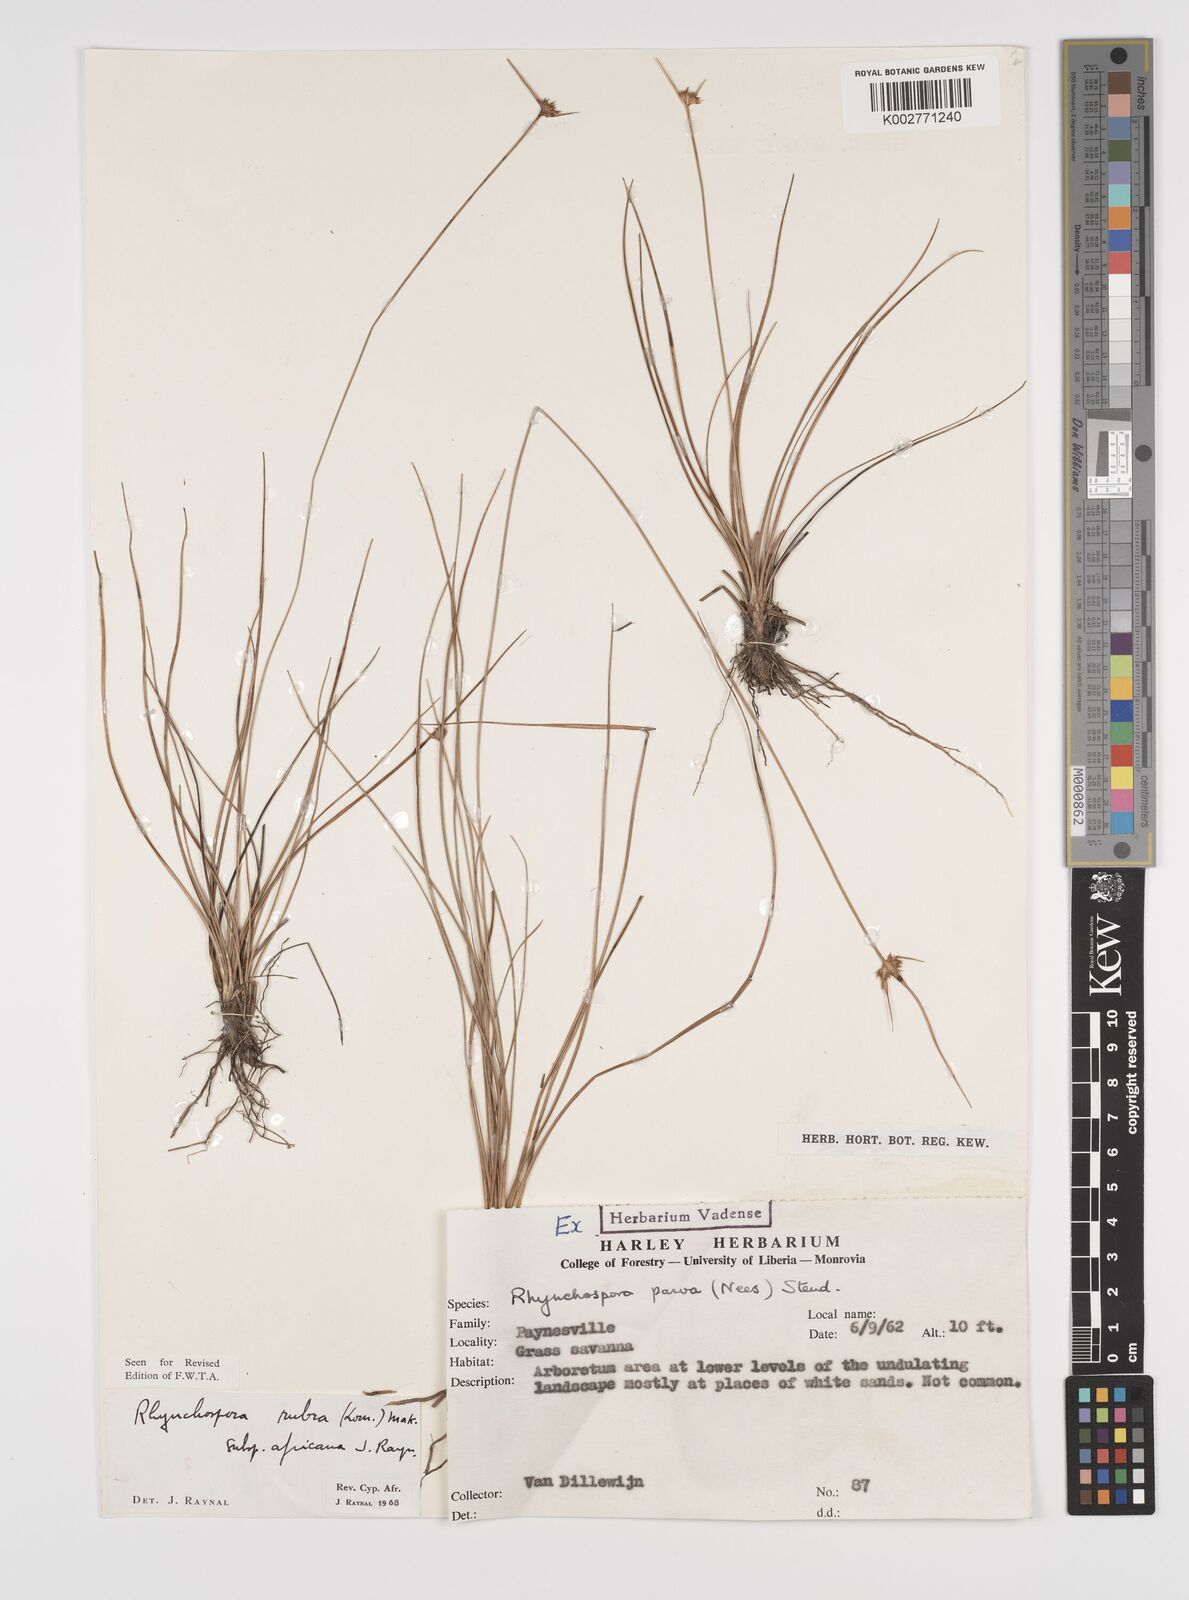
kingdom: Plantae
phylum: Tracheophyta
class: Liliopsida
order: Poales
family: Cyperaceae
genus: Rhynchospora
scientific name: Rhynchospora rubra
